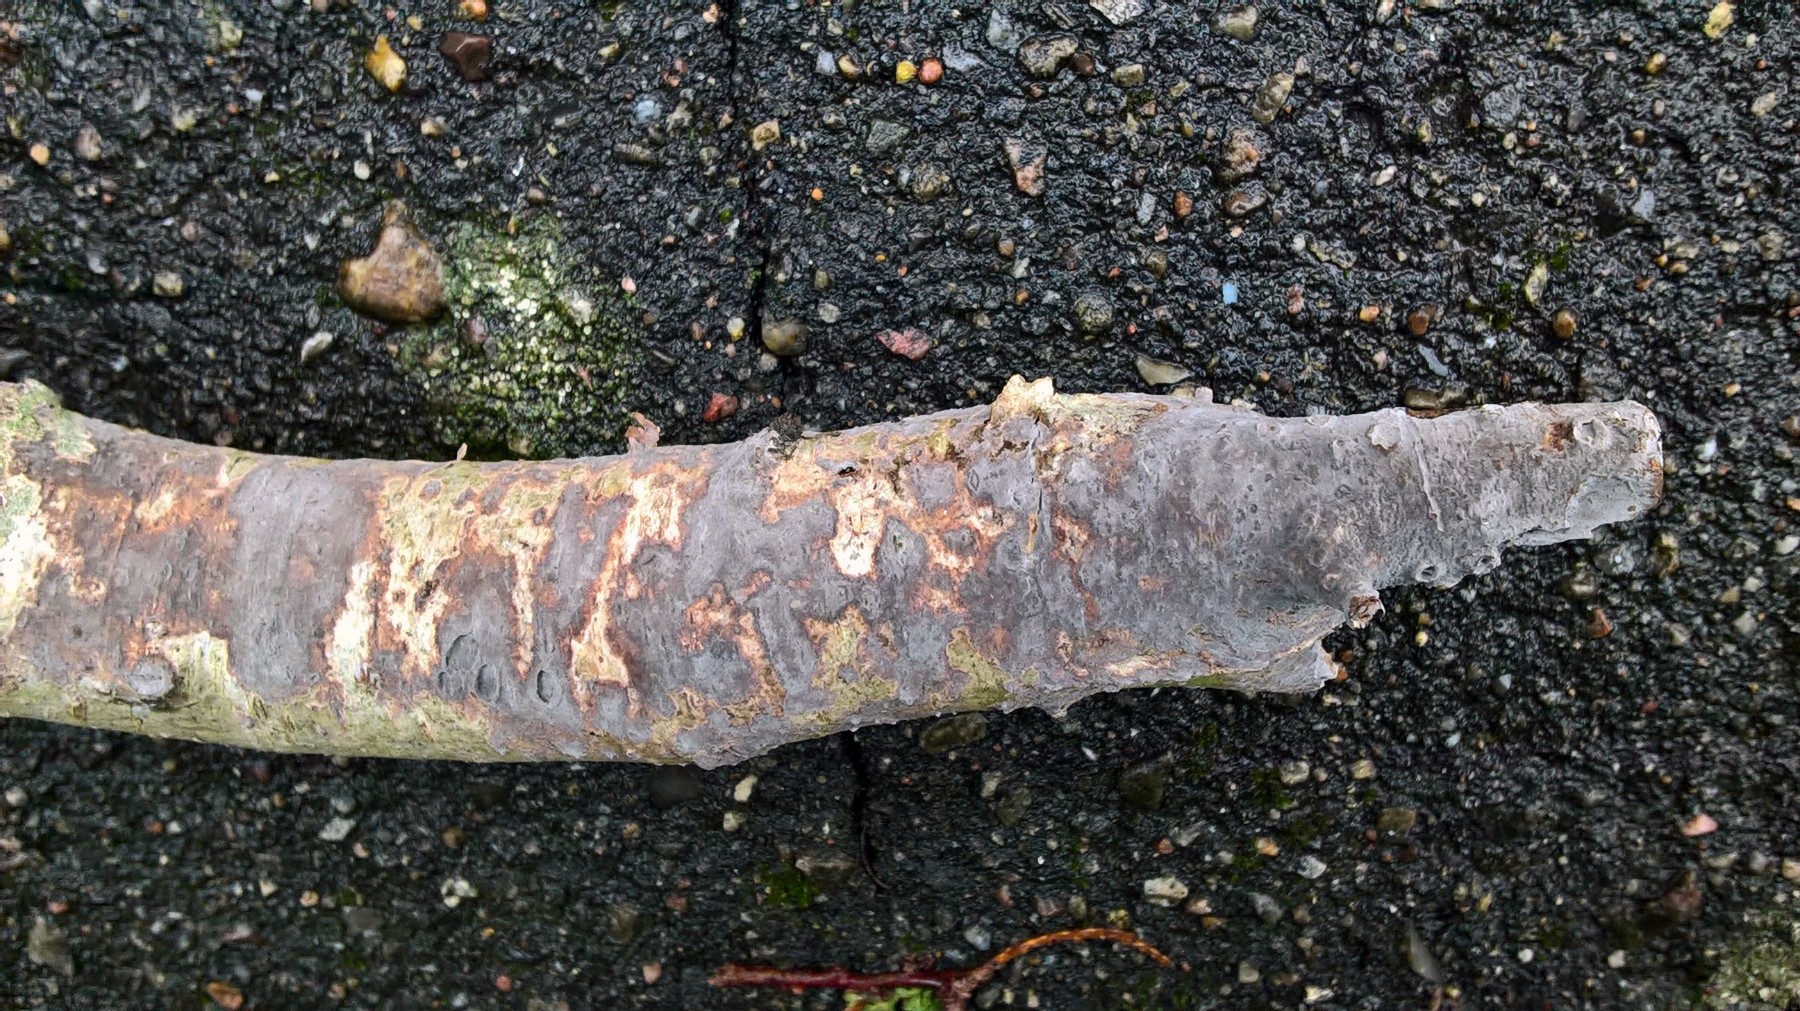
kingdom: Fungi
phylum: Basidiomycota
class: Agaricomycetes
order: Russulales
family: Peniophoraceae
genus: Peniophora
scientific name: Peniophora
